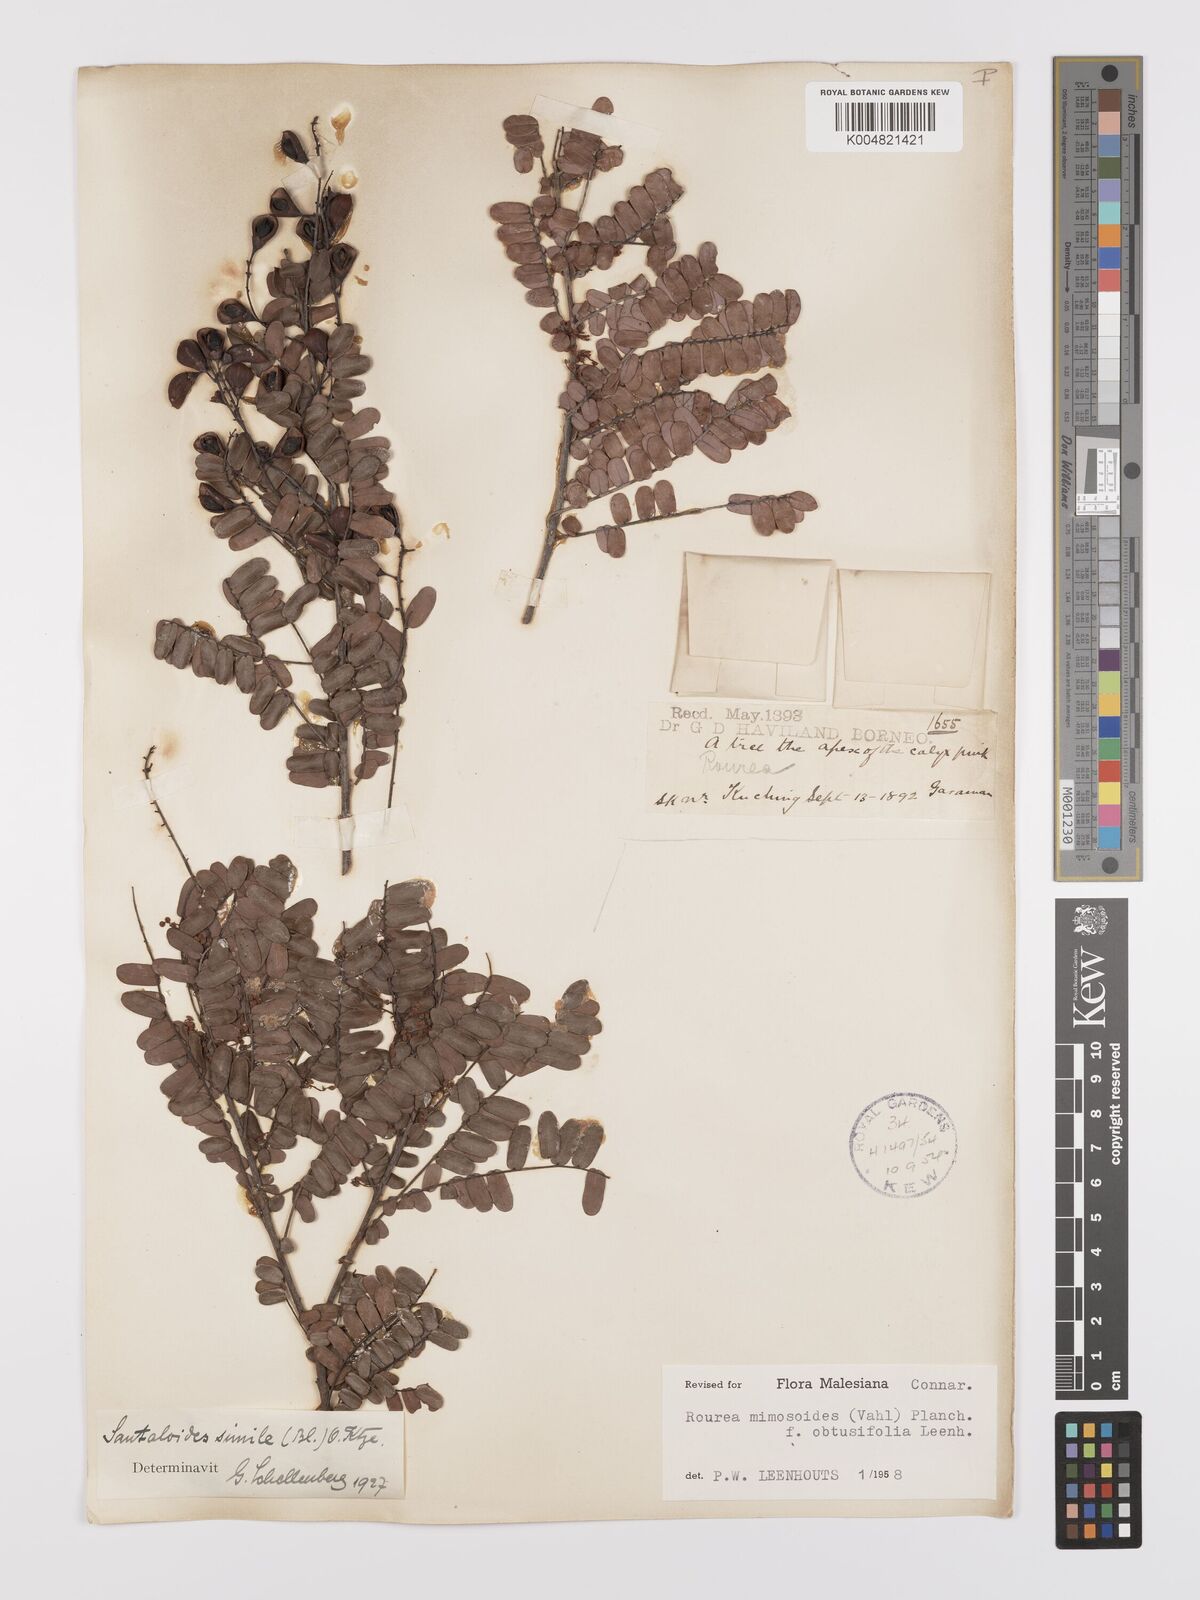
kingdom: Plantae
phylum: Tracheophyta
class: Magnoliopsida
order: Oxalidales
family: Connaraceae
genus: Rourea
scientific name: Rourea mimosoides
